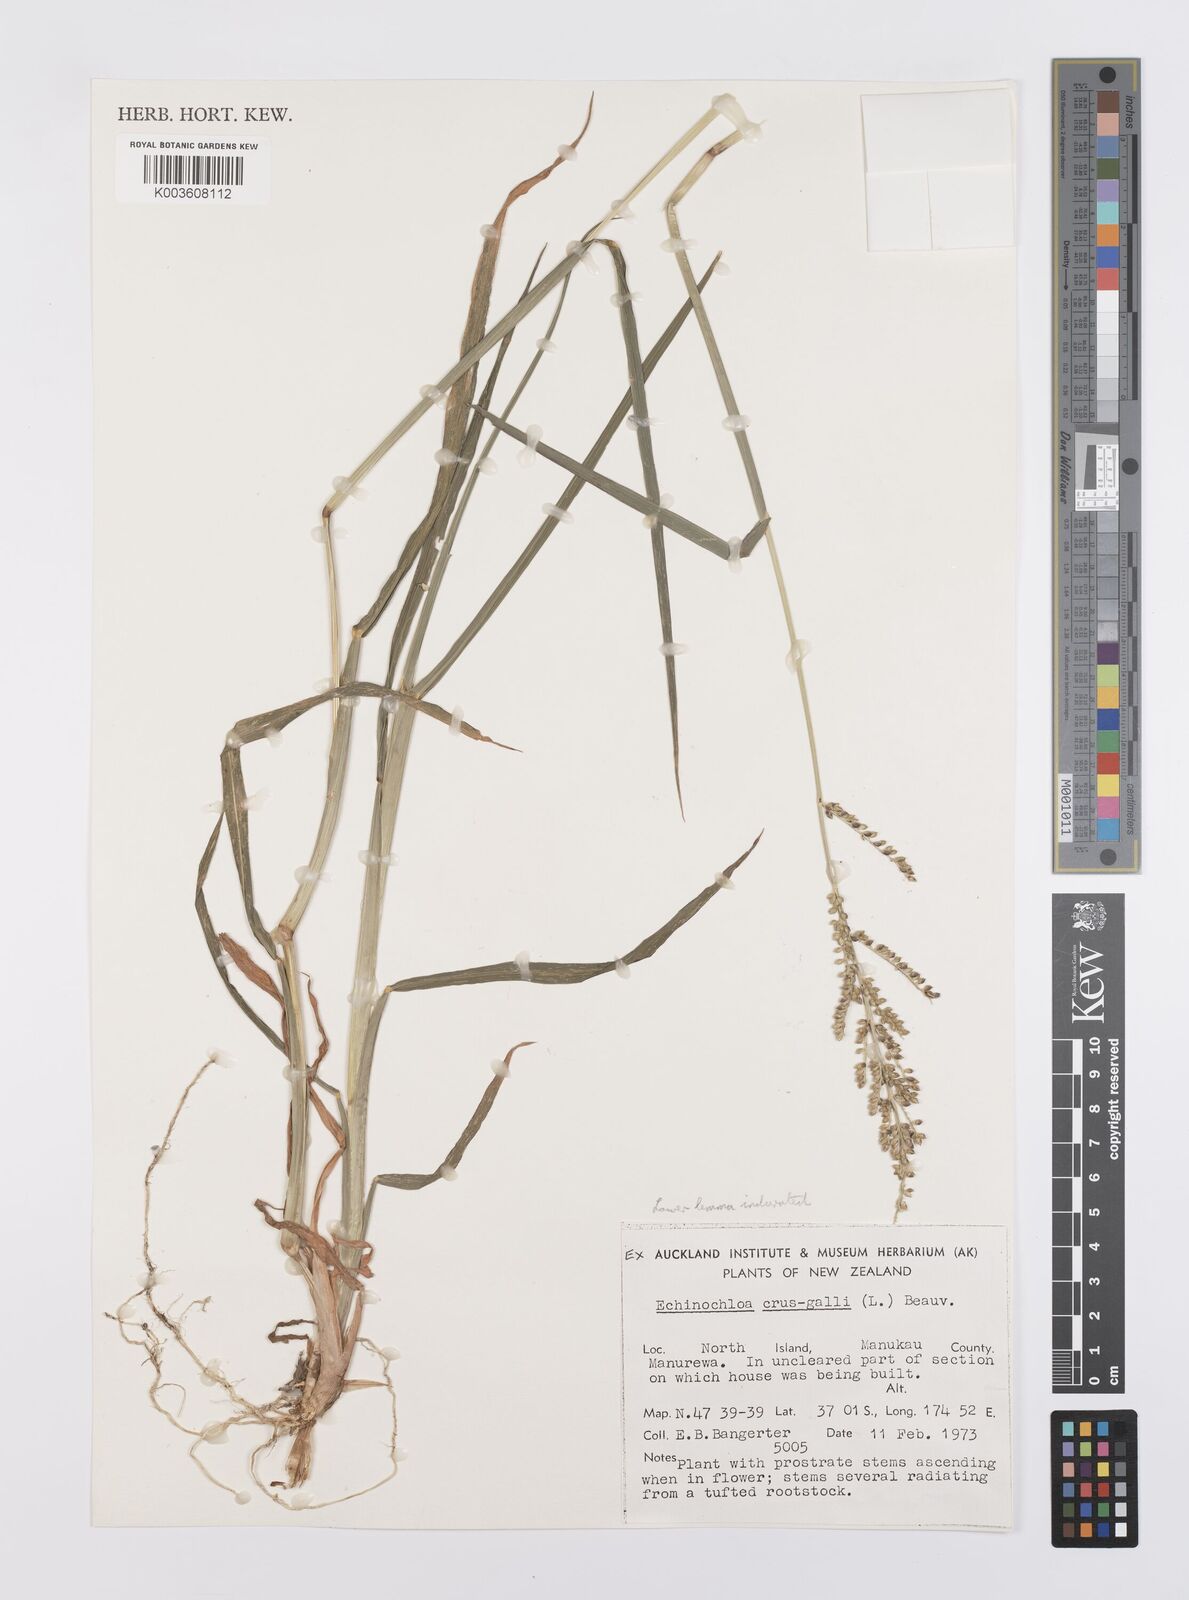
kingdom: Plantae
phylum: Tracheophyta
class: Liliopsida
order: Poales
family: Poaceae
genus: Echinochloa
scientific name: Echinochloa crus-galli
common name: Cockspur
